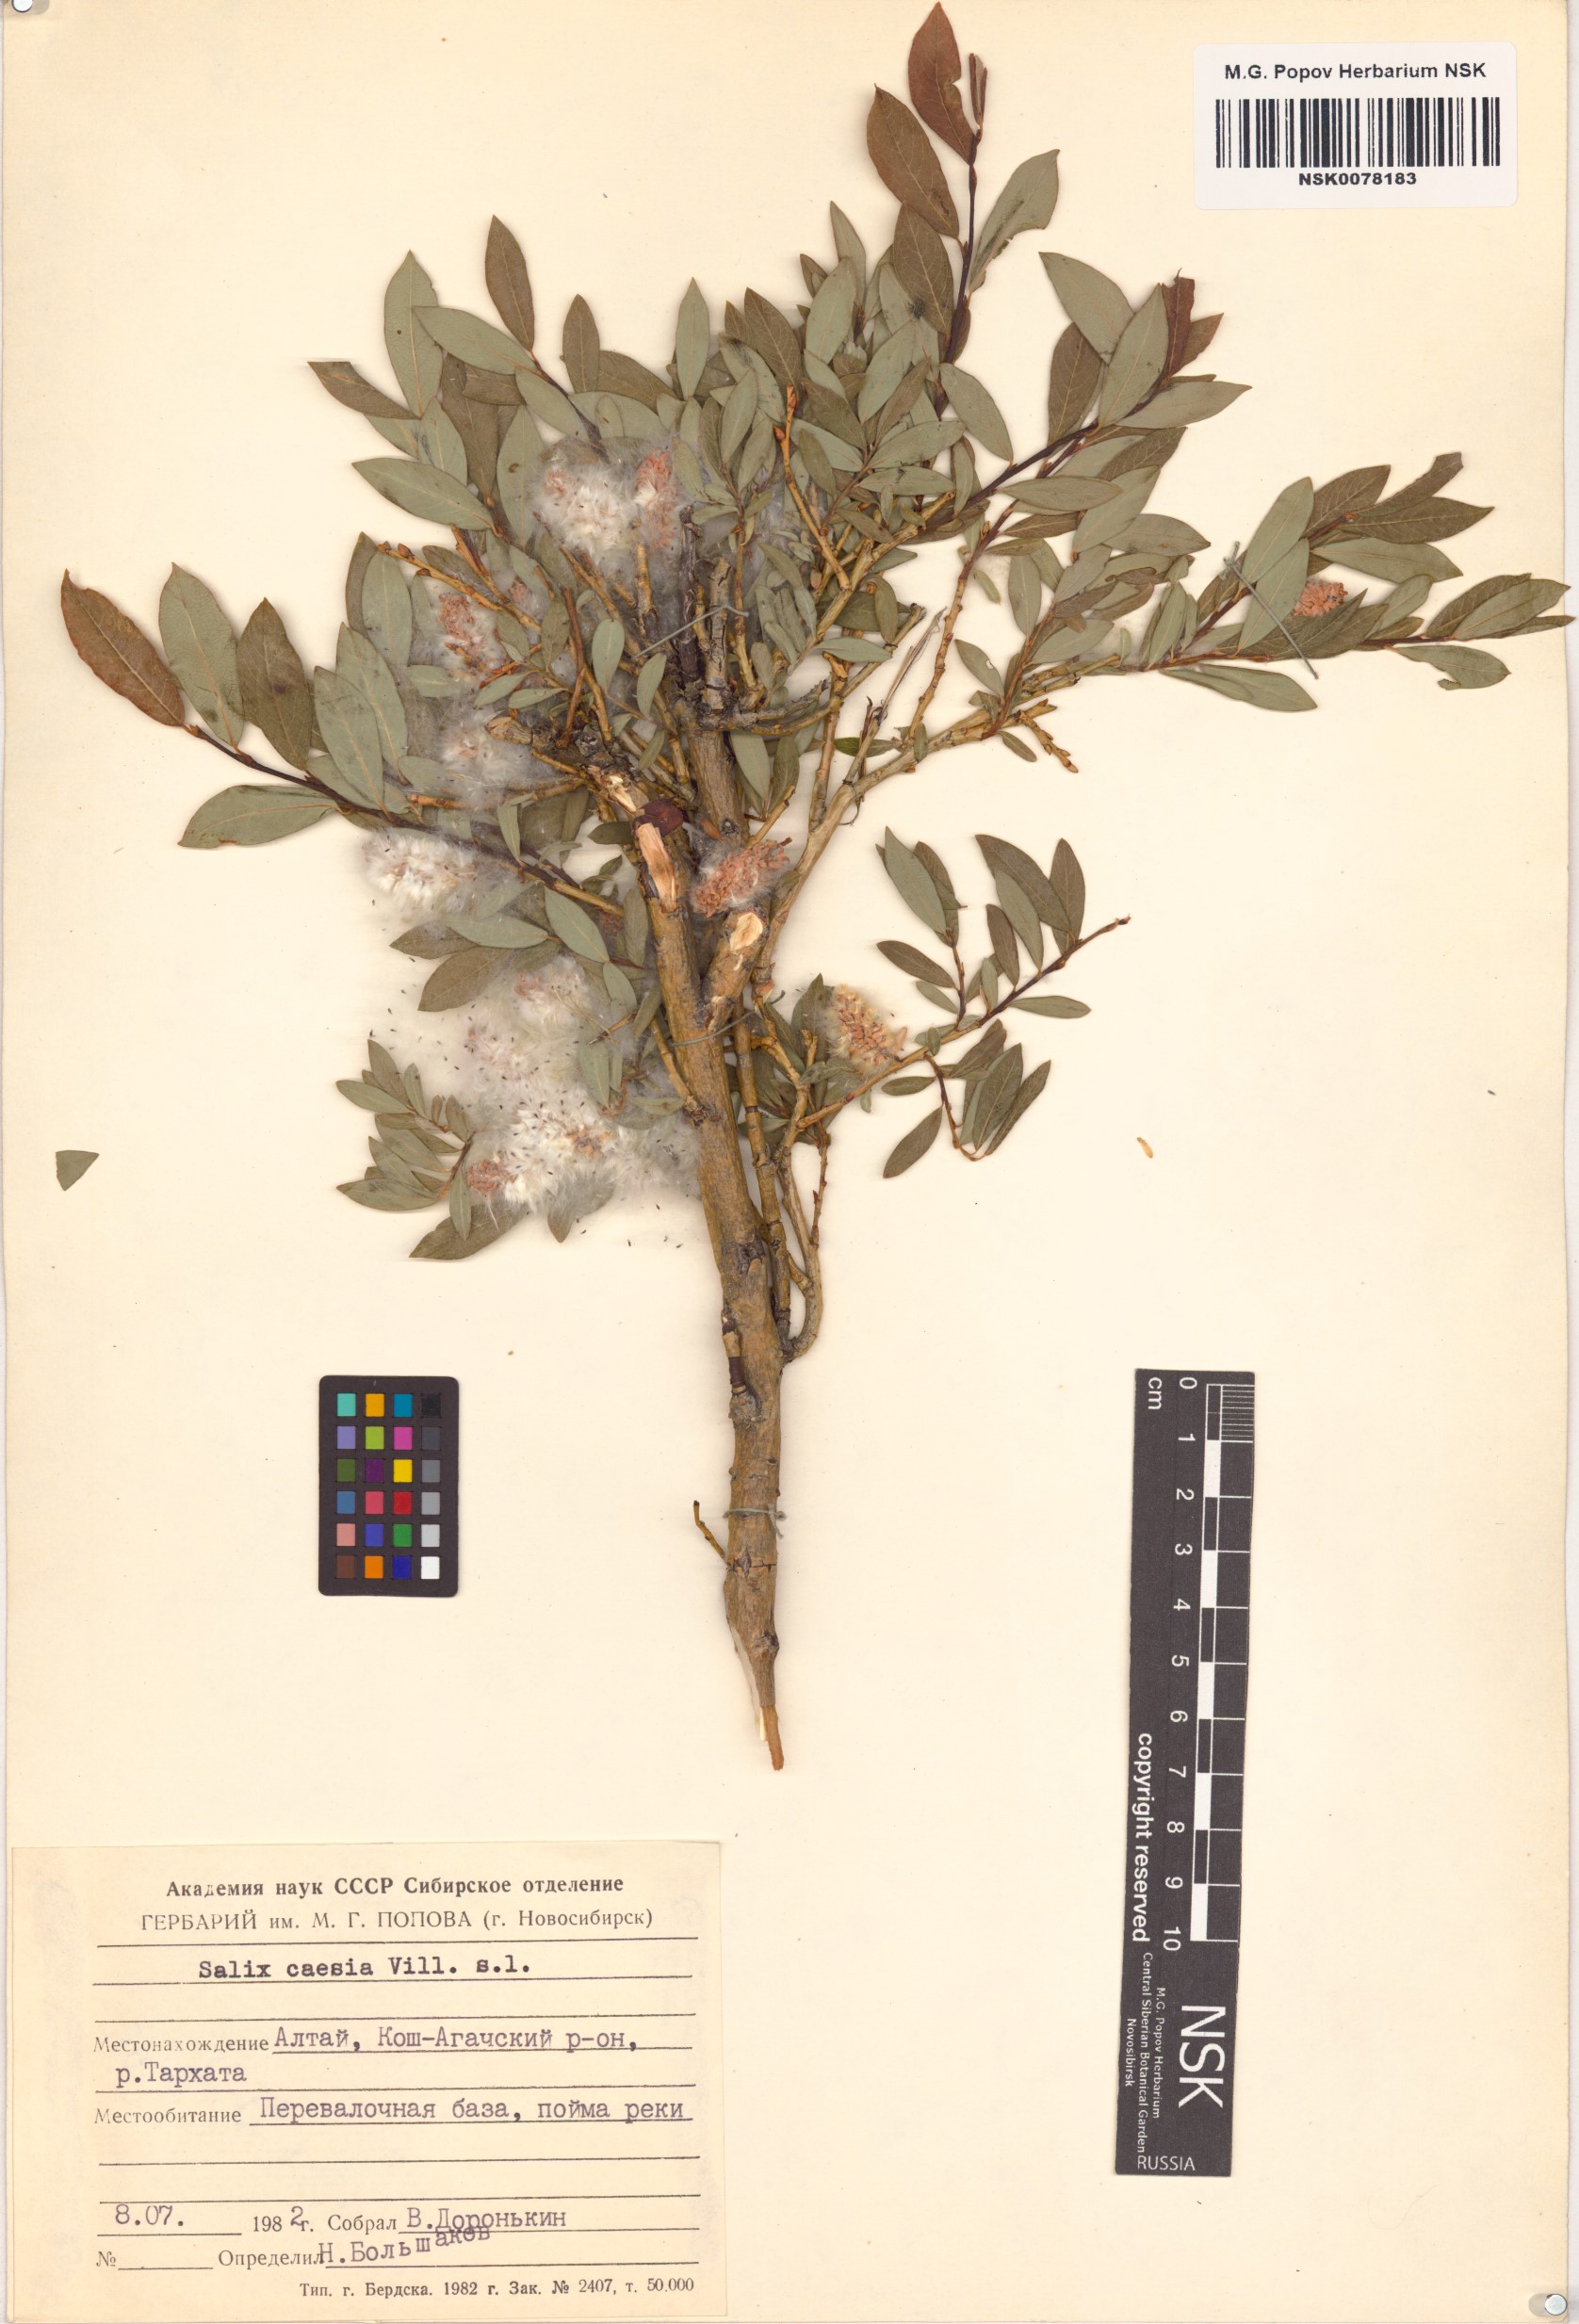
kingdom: Plantae
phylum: Tracheophyta
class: Magnoliopsida
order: Malpighiales
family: Salicaceae
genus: Salix
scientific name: Salix caesia
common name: Blue willow
